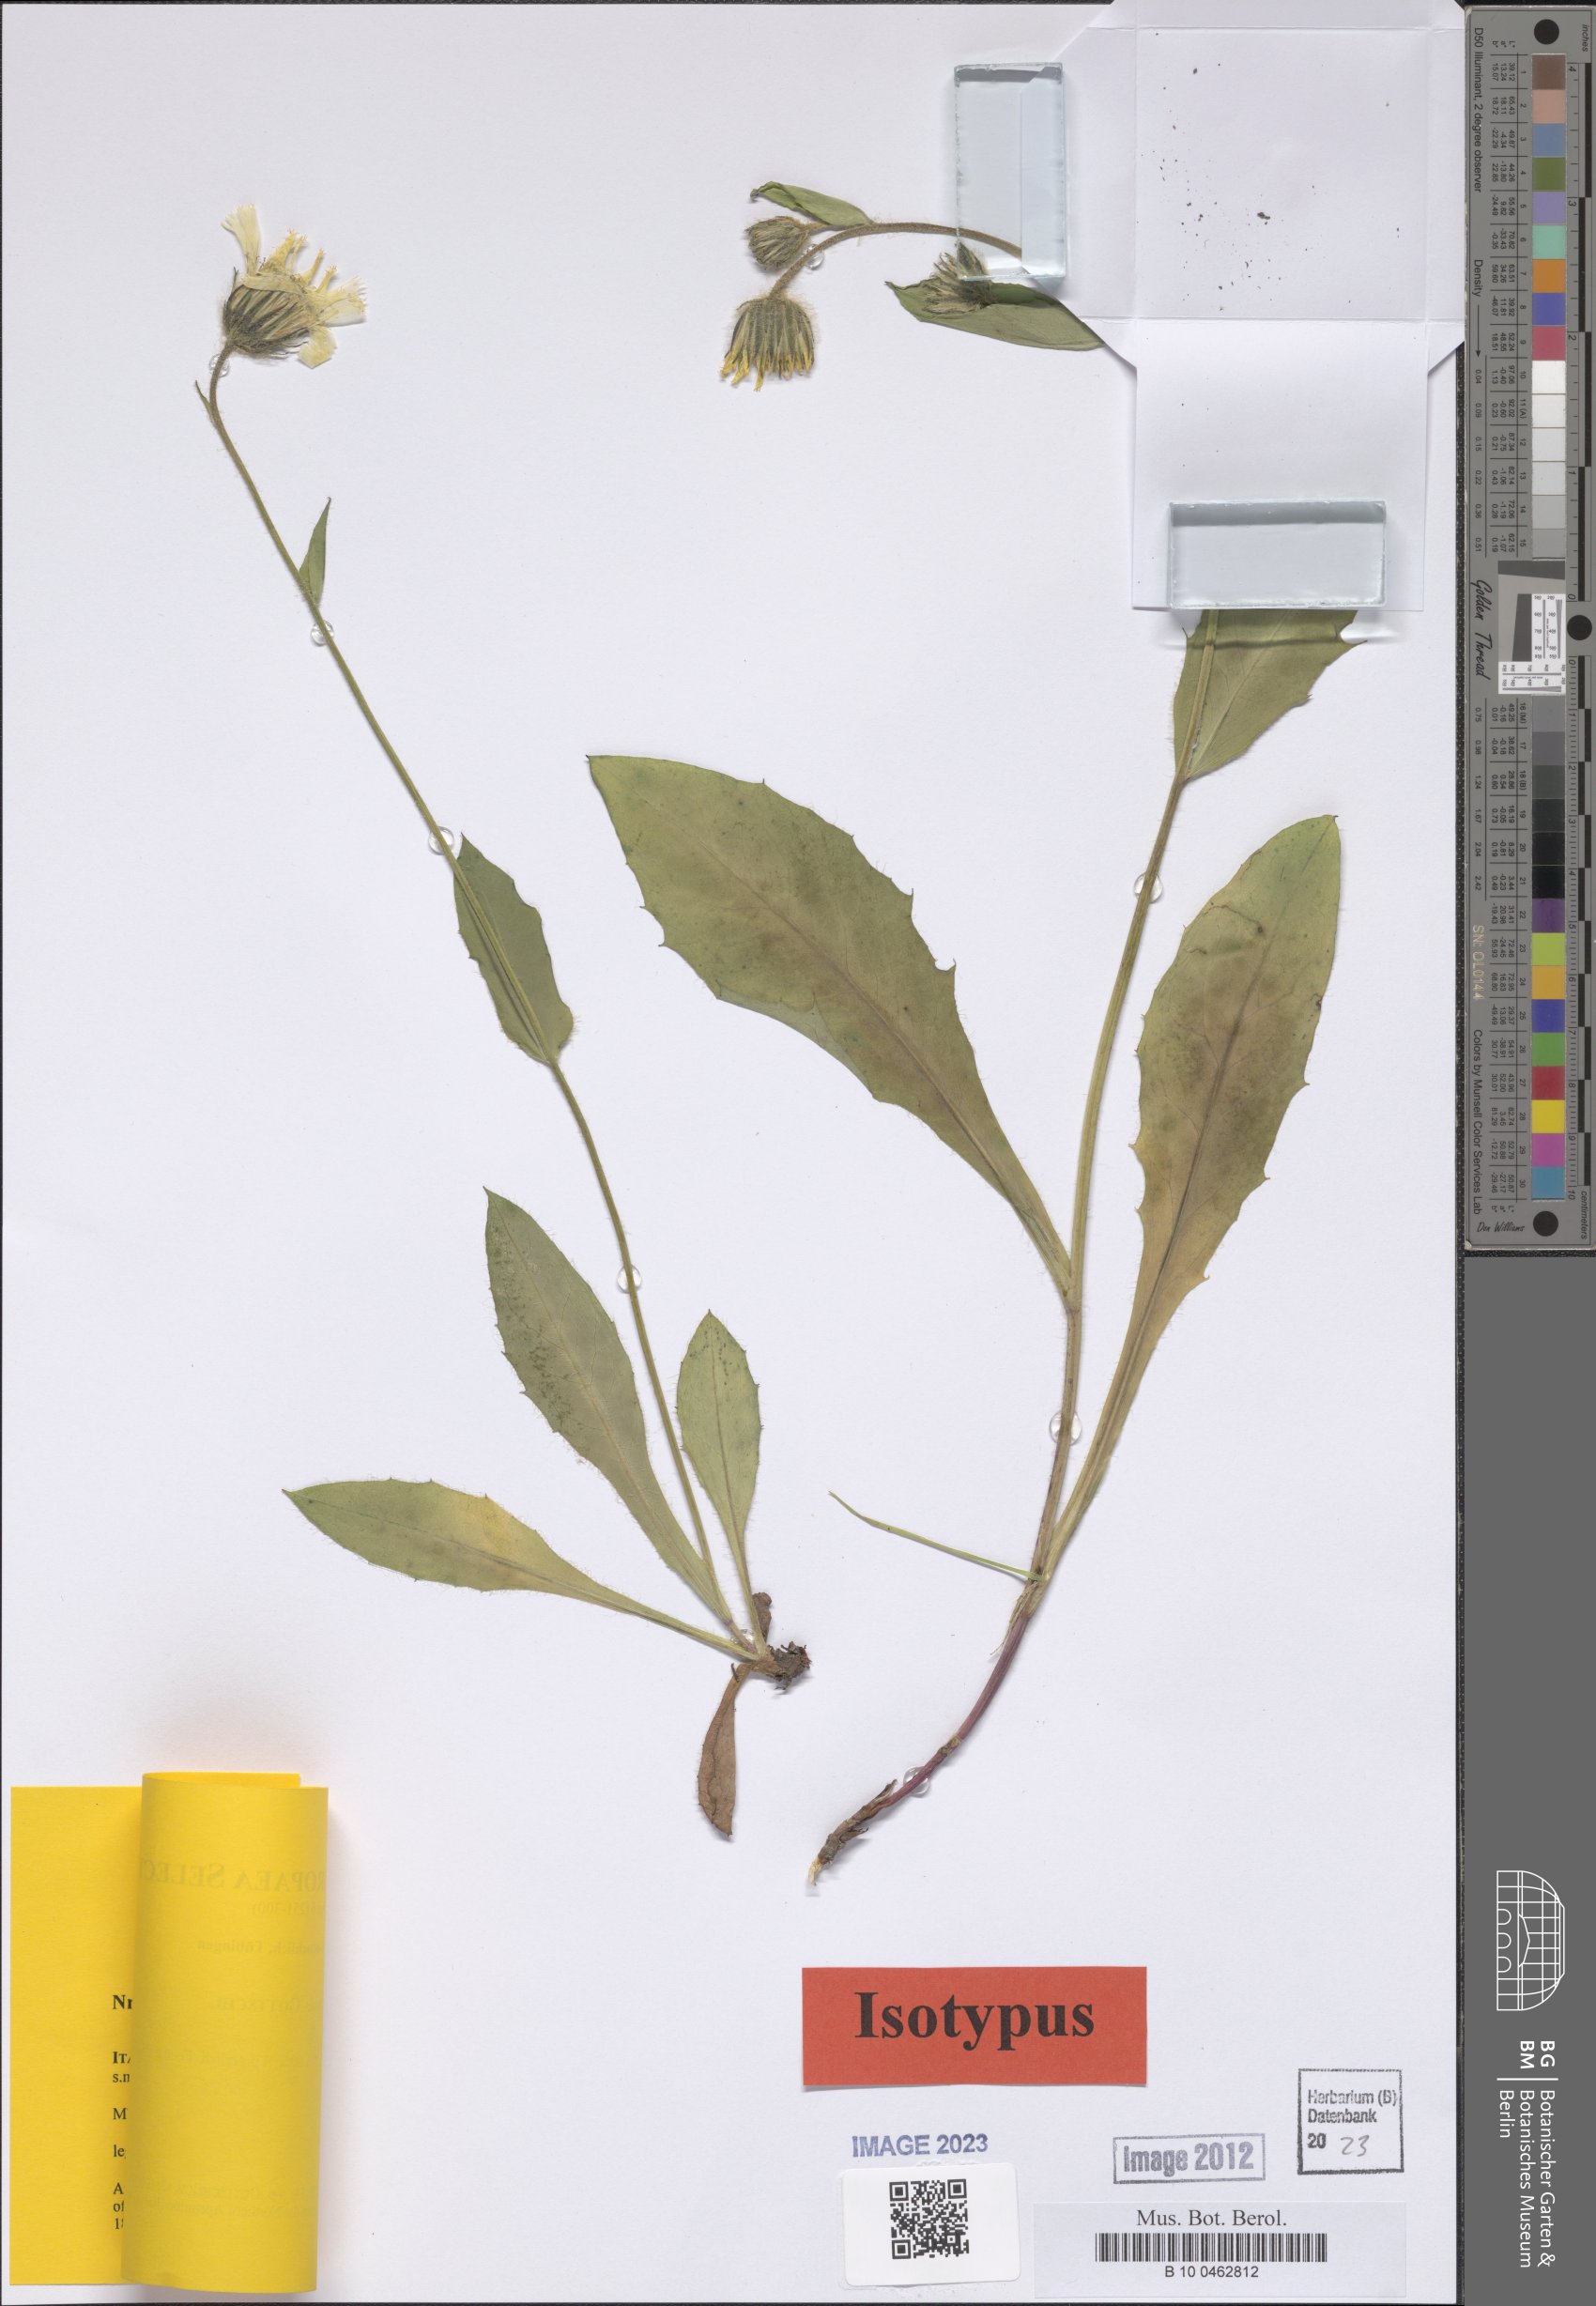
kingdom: Plantae
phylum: Tracheophyta
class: Magnoliopsida
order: Asterales
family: Asteraceae
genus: Hieracium
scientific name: Hieracium faucisjovis
